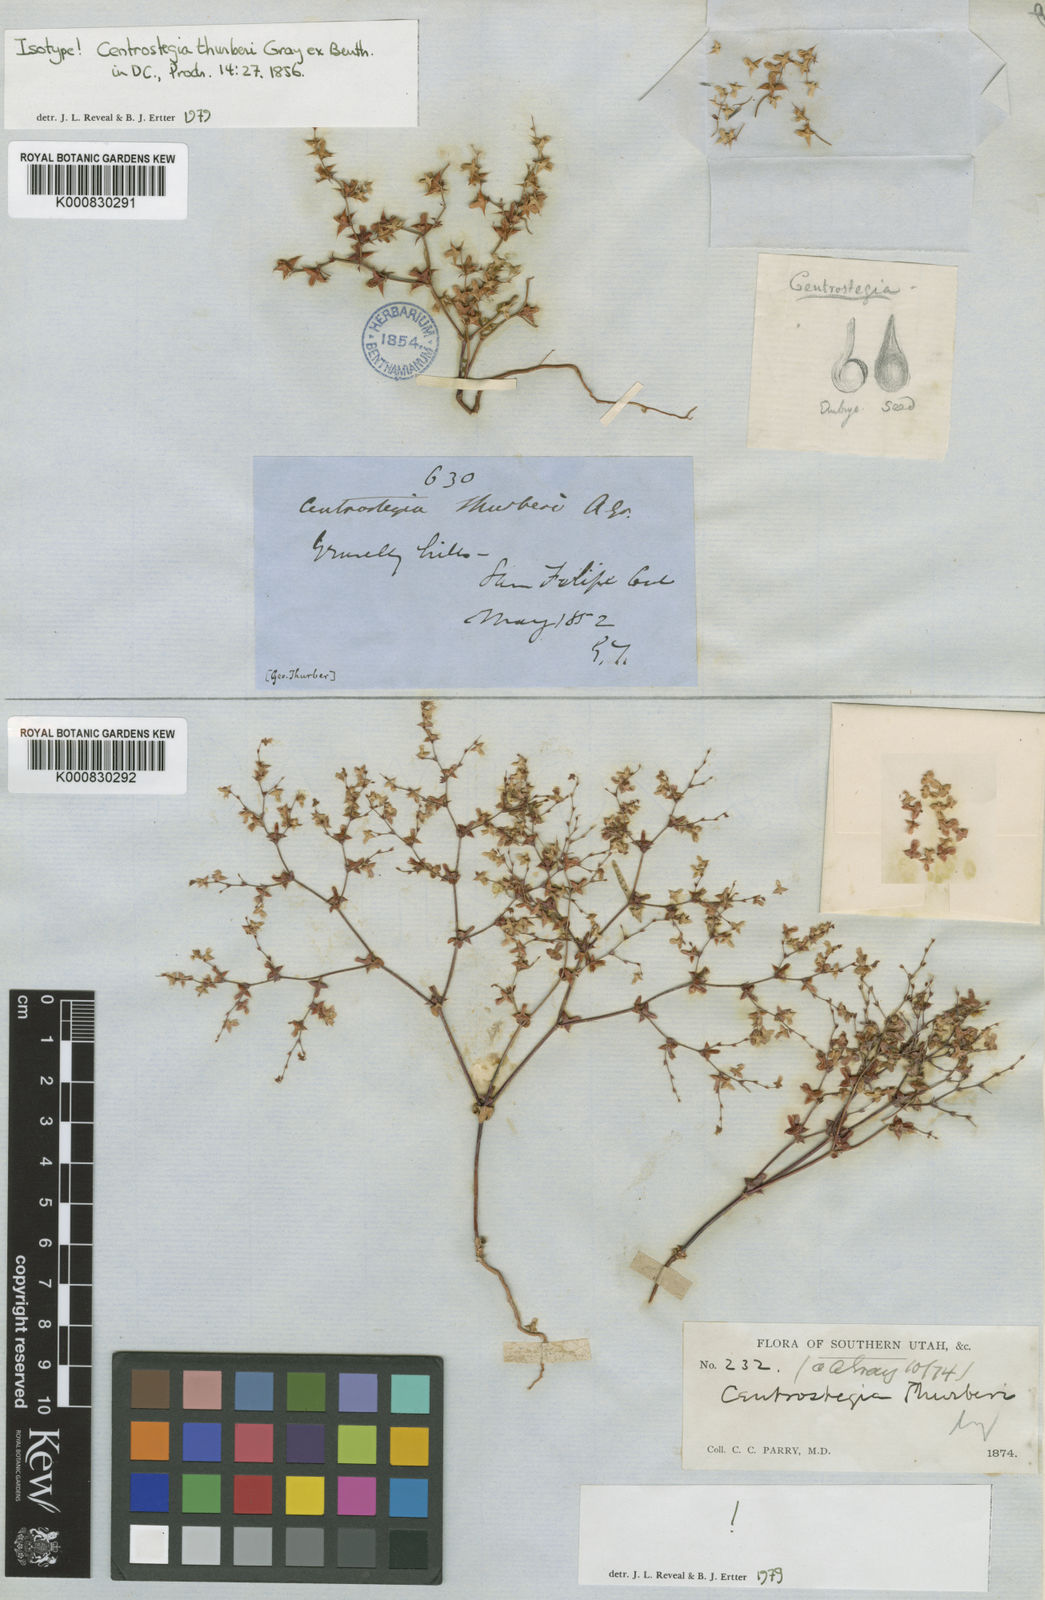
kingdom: Plantae
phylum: Tracheophyta
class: Magnoliopsida
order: Caryophyllales
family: Polygonaceae
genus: Centrostegia
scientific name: Centrostegia thurberi
